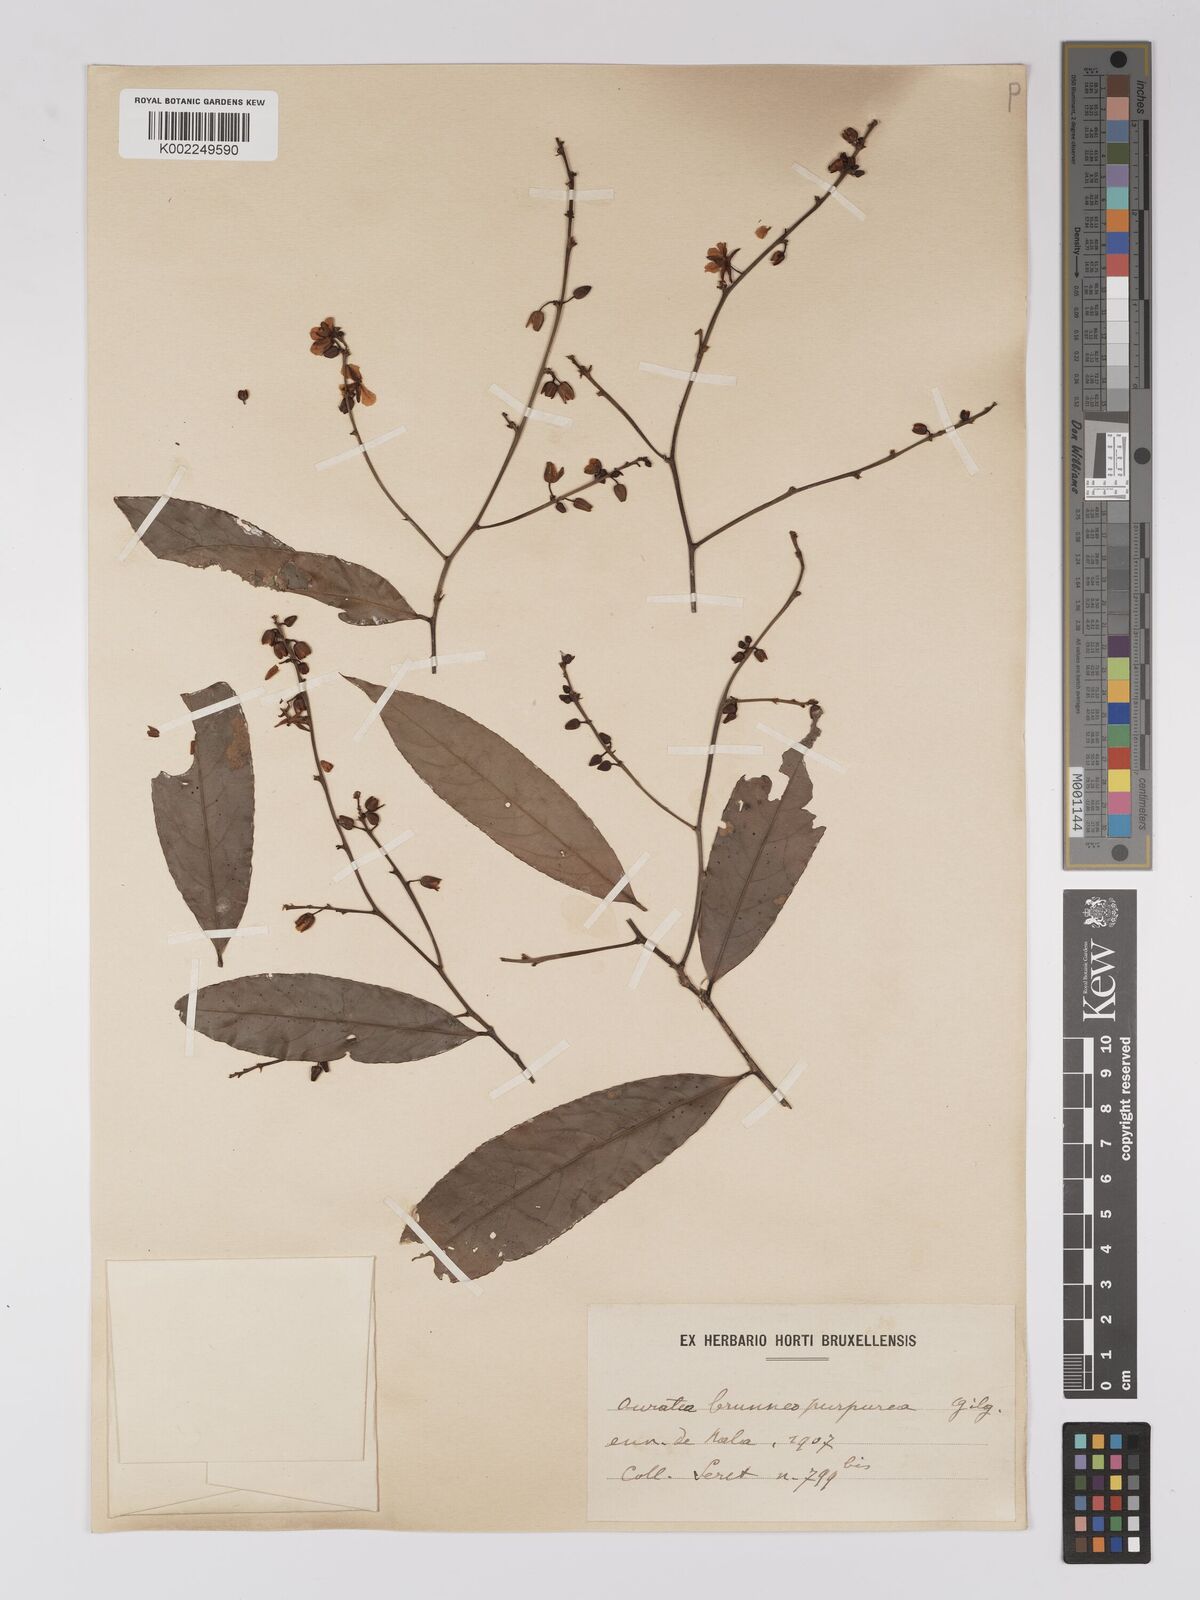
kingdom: Plantae
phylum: Tracheophyta
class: Magnoliopsida
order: Malpighiales
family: Ochnaceae
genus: Campylospermum
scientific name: Campylospermum reticulatum
